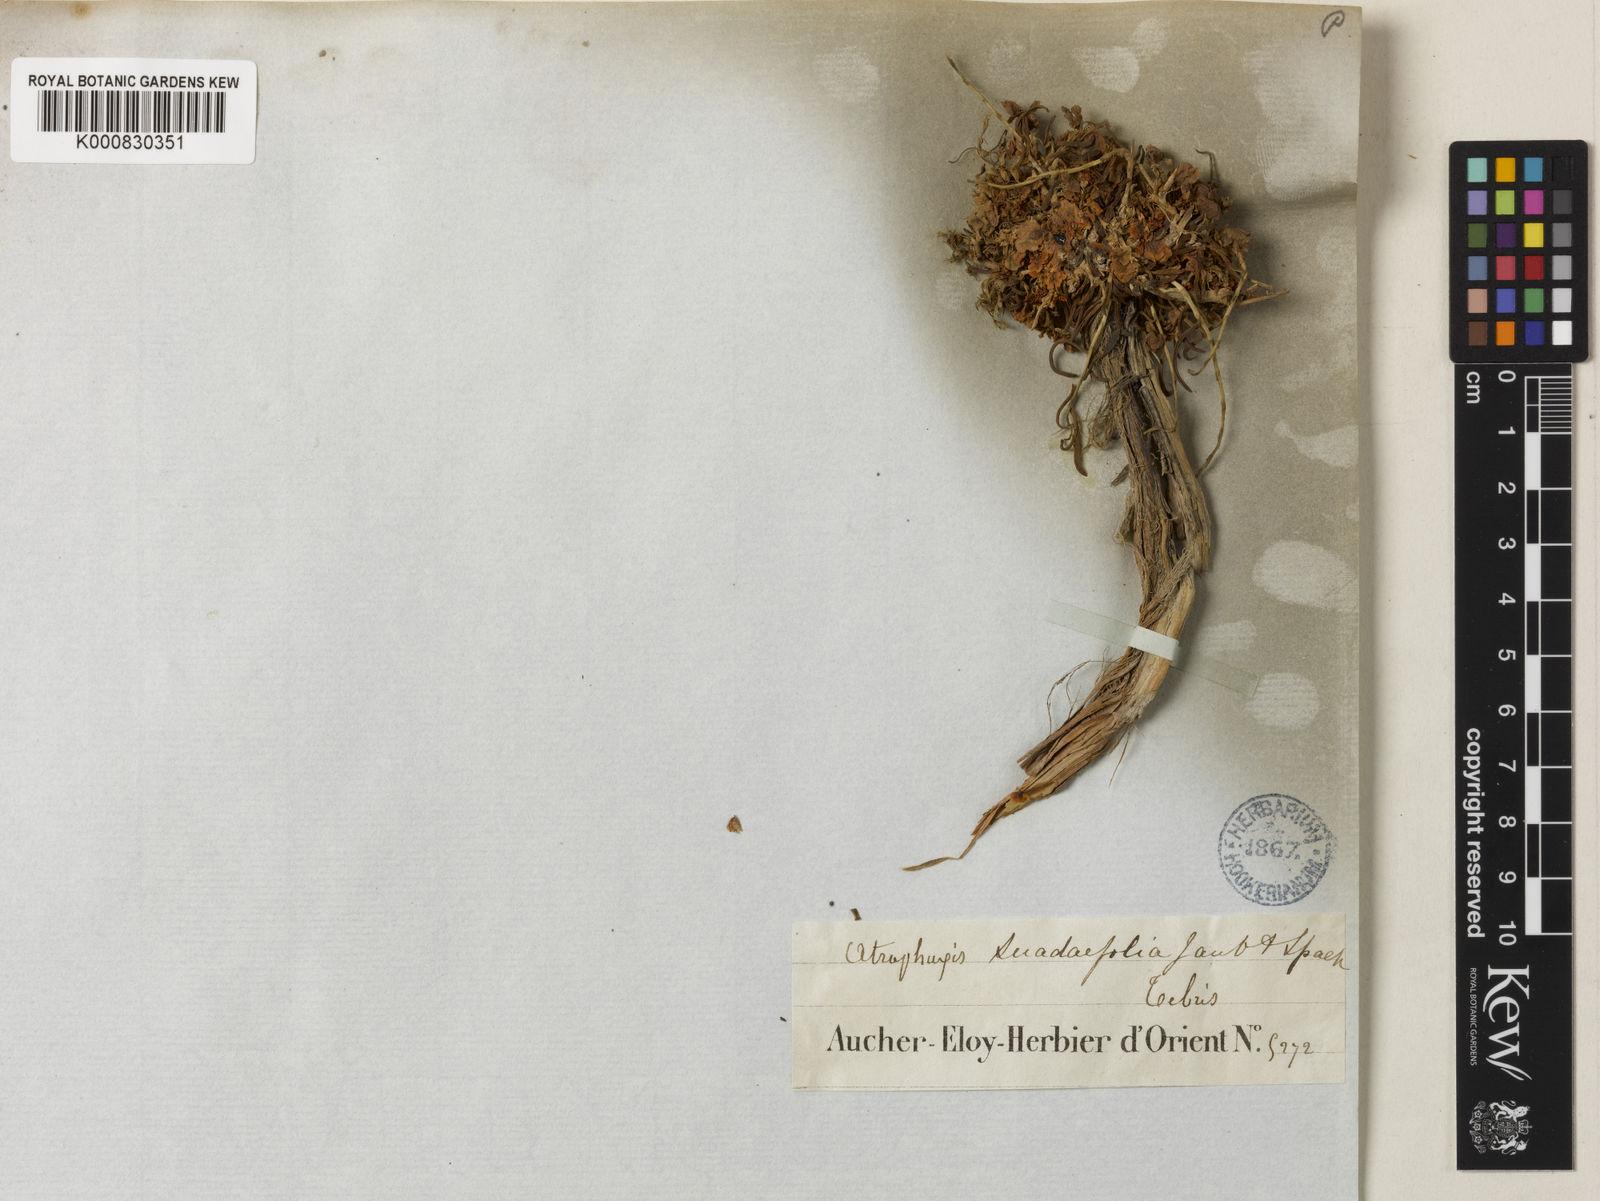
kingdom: Plantae
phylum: Tracheophyta
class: Magnoliopsida
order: Caryophyllales
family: Polygonaceae
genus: Atraphaxis
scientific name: Atraphaxis suaedifolia
